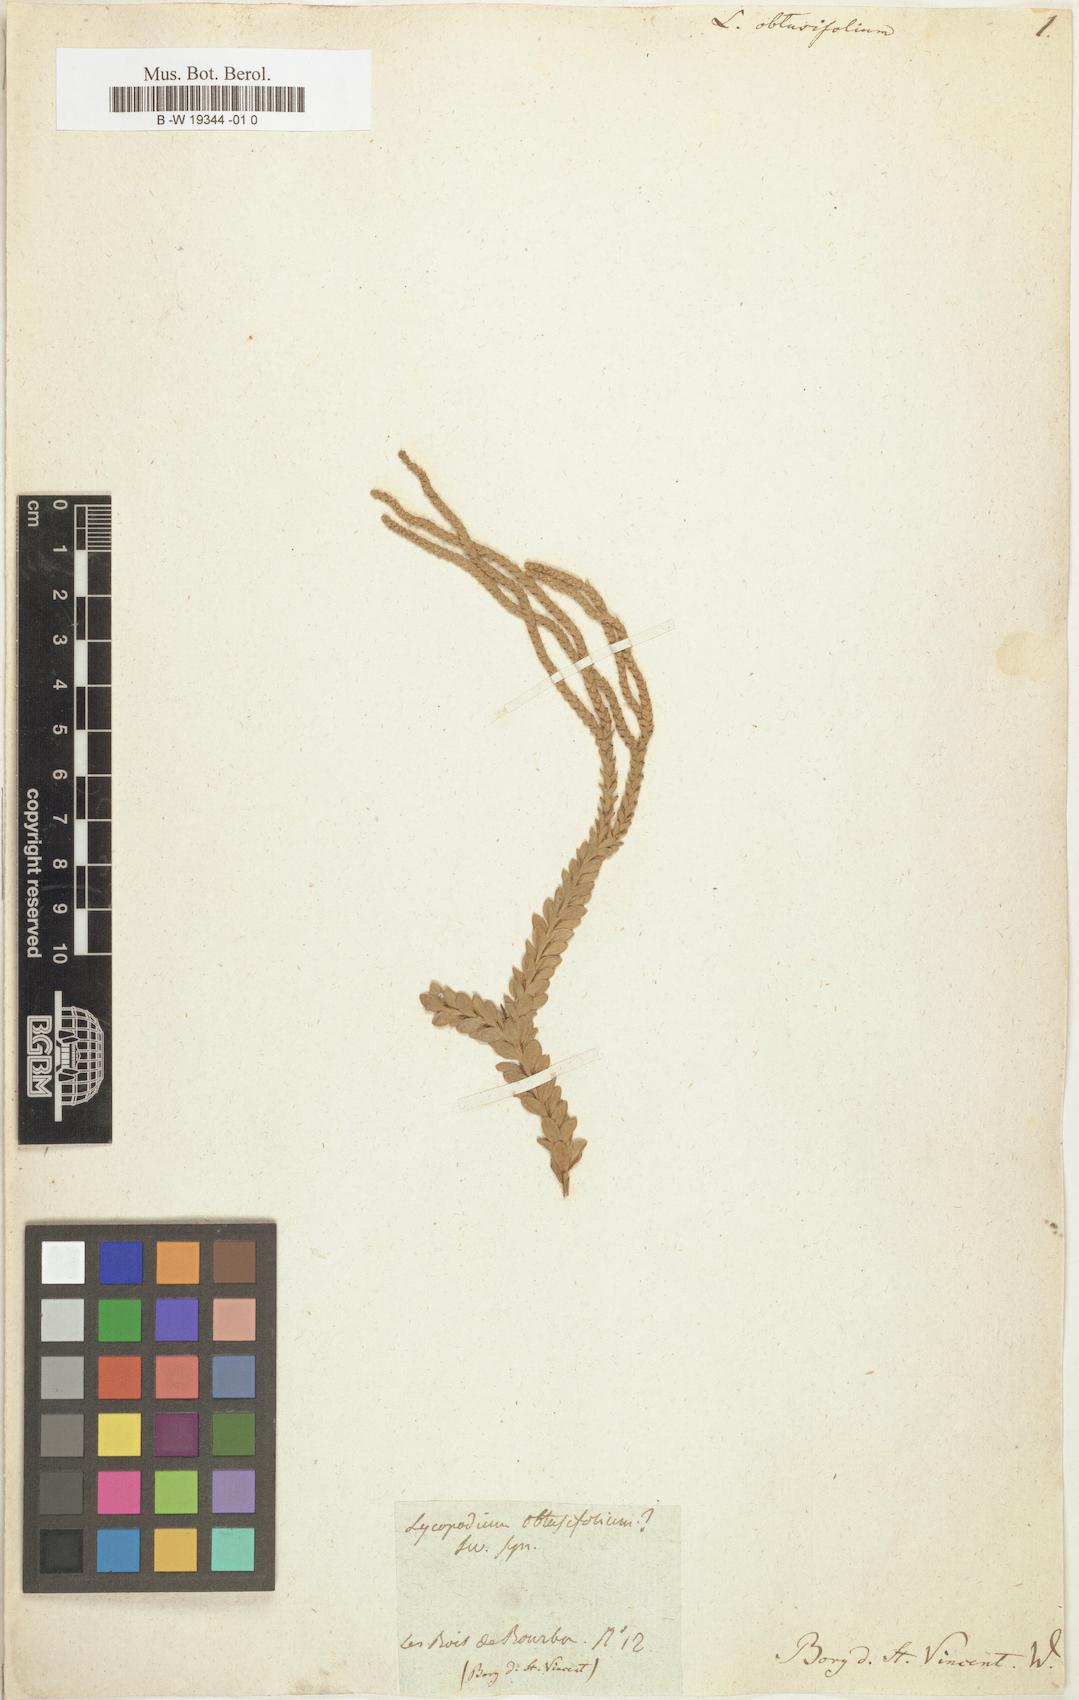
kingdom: Plantae
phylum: Tracheophyta
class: Lycopodiopsida
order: Lycopodiales
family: Lycopodiaceae
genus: Phlegmariurus
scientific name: Phlegmariurus
